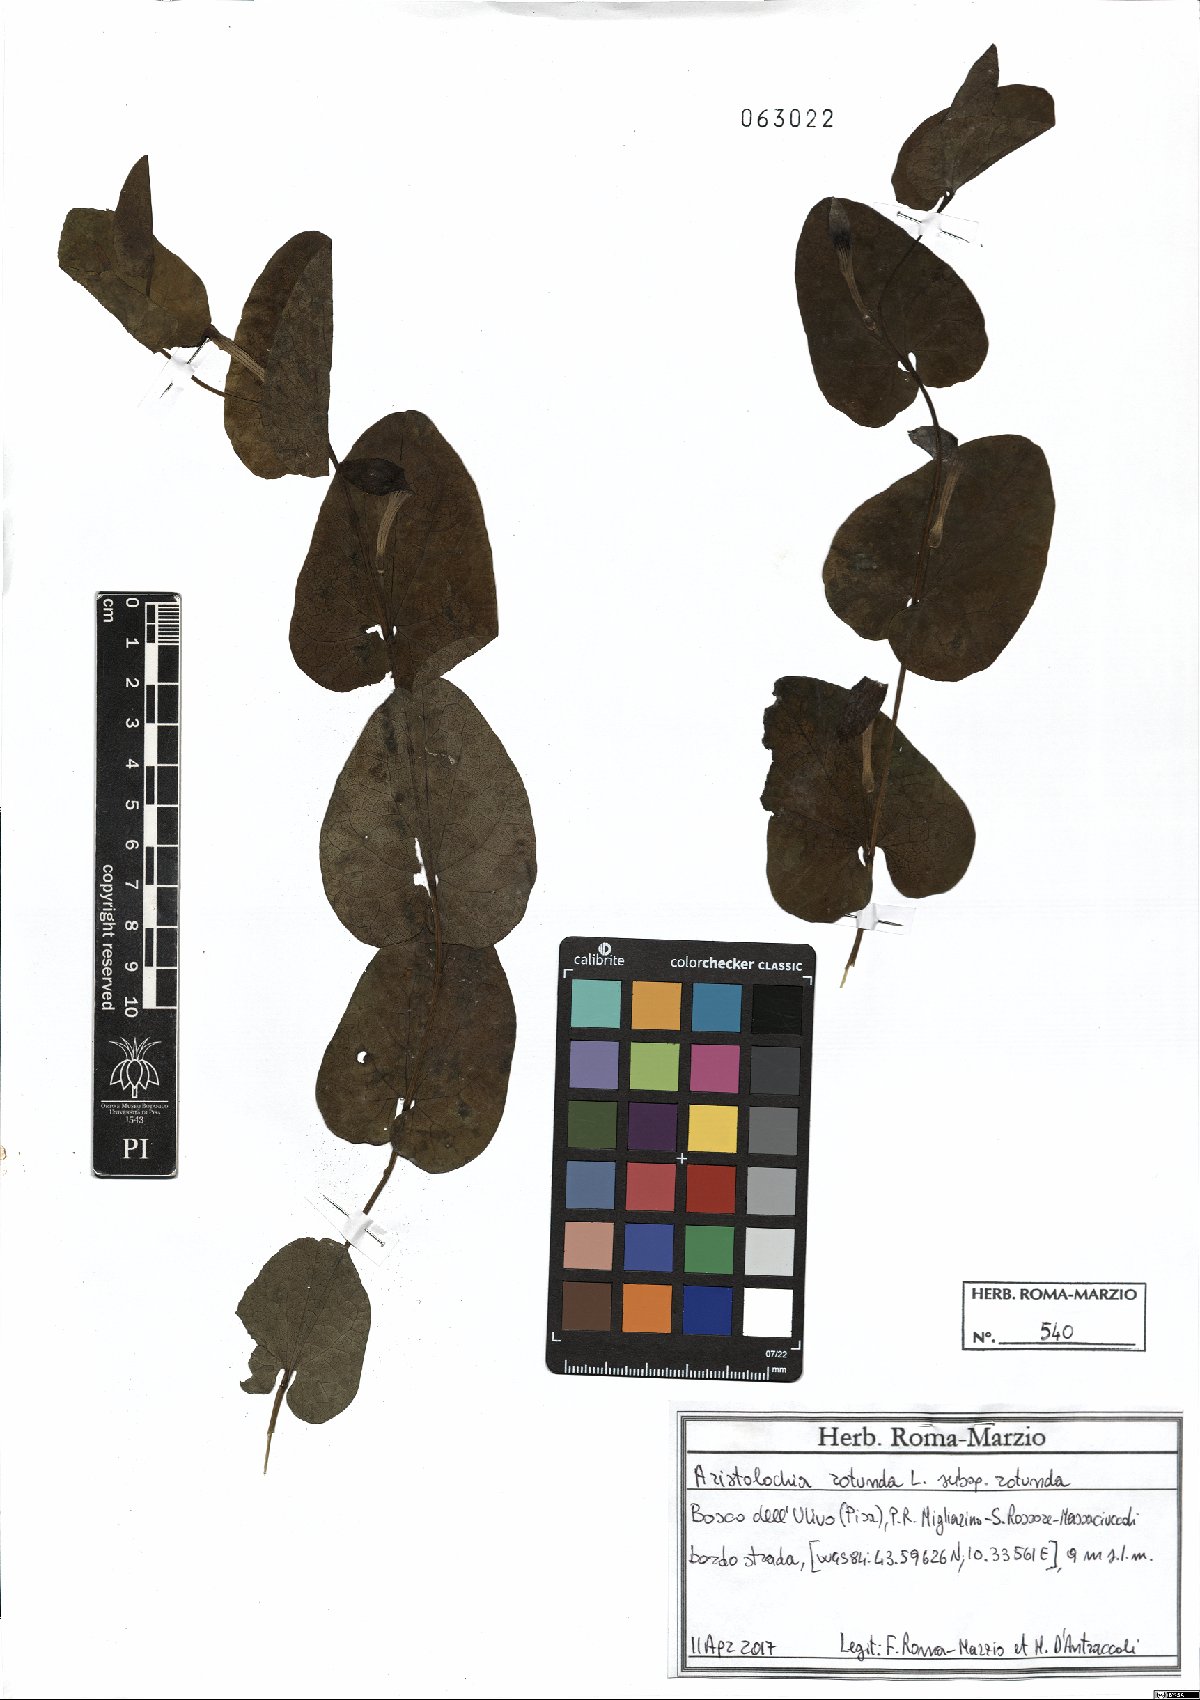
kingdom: Plantae
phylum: Tracheophyta
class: Magnoliopsida
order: Piperales
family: Aristolochiaceae
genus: Aristolochia
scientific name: Aristolochia rotunda
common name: Smearwort
